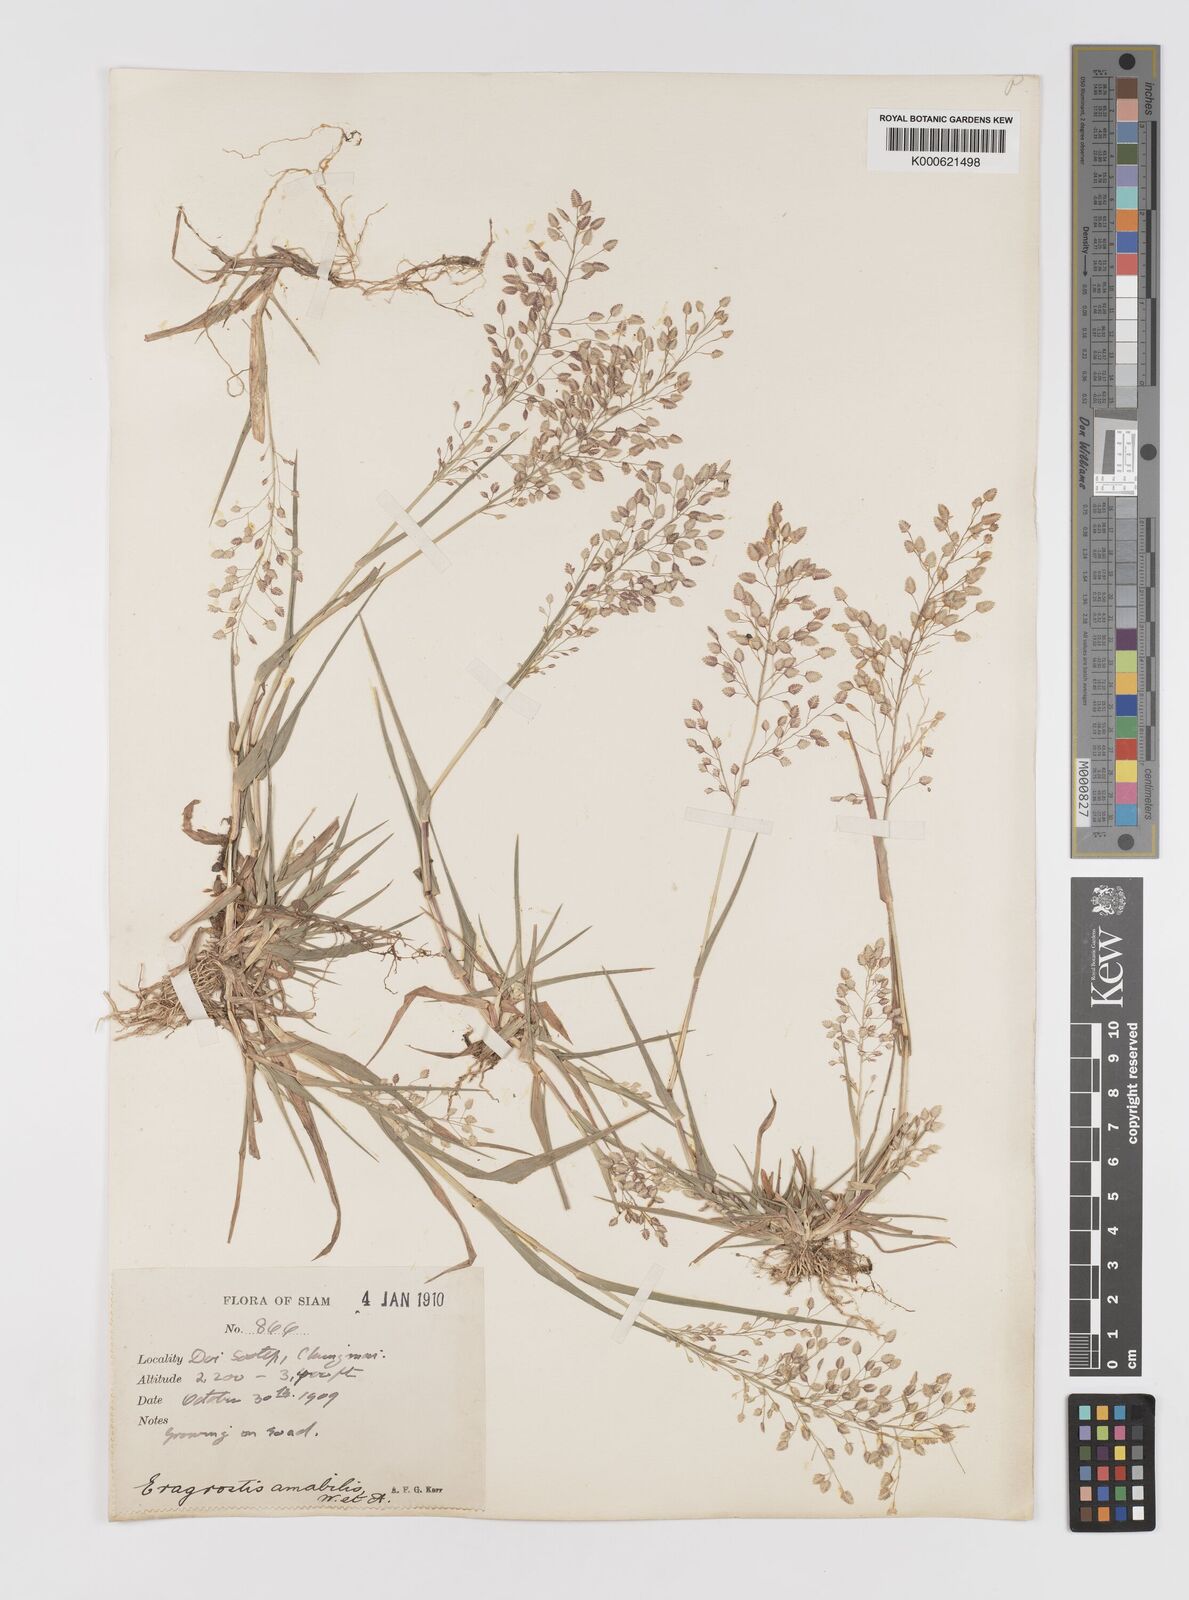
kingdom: Plantae
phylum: Tracheophyta
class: Liliopsida
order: Poales
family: Poaceae
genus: Eragrostis
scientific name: Eragrostis unioloides
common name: Chinese lovegrass
